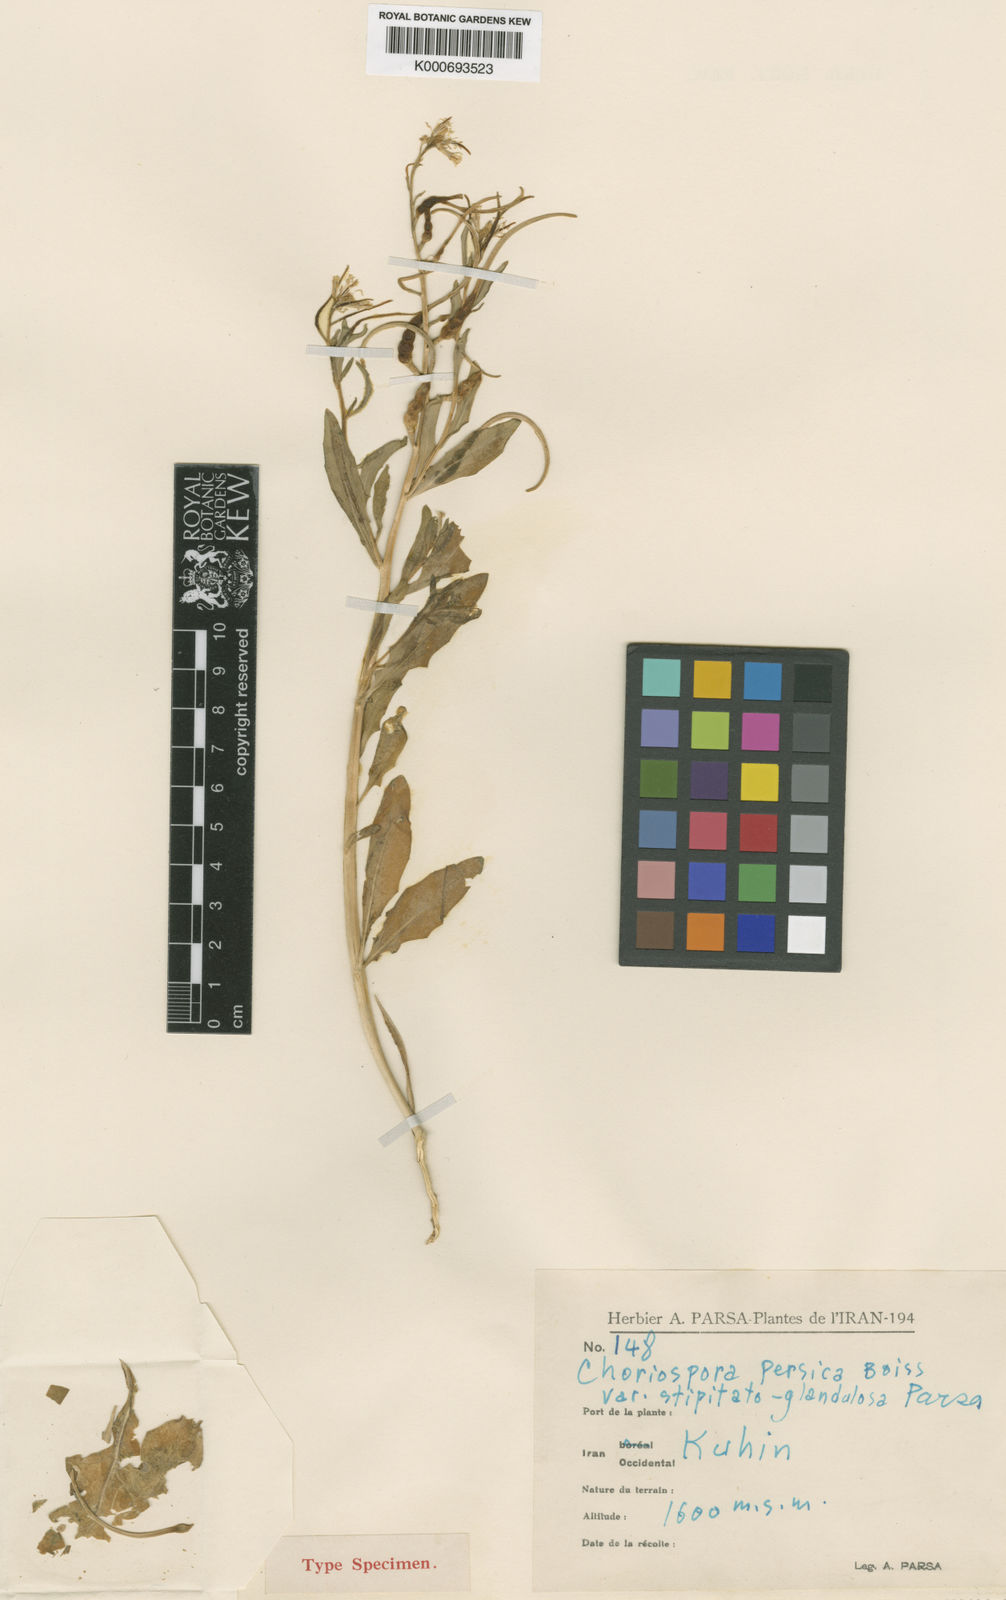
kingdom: Plantae
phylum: Tracheophyta
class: Magnoliopsida
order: Brassicales
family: Brassicaceae
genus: Chorispora
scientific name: Chorispora persica
